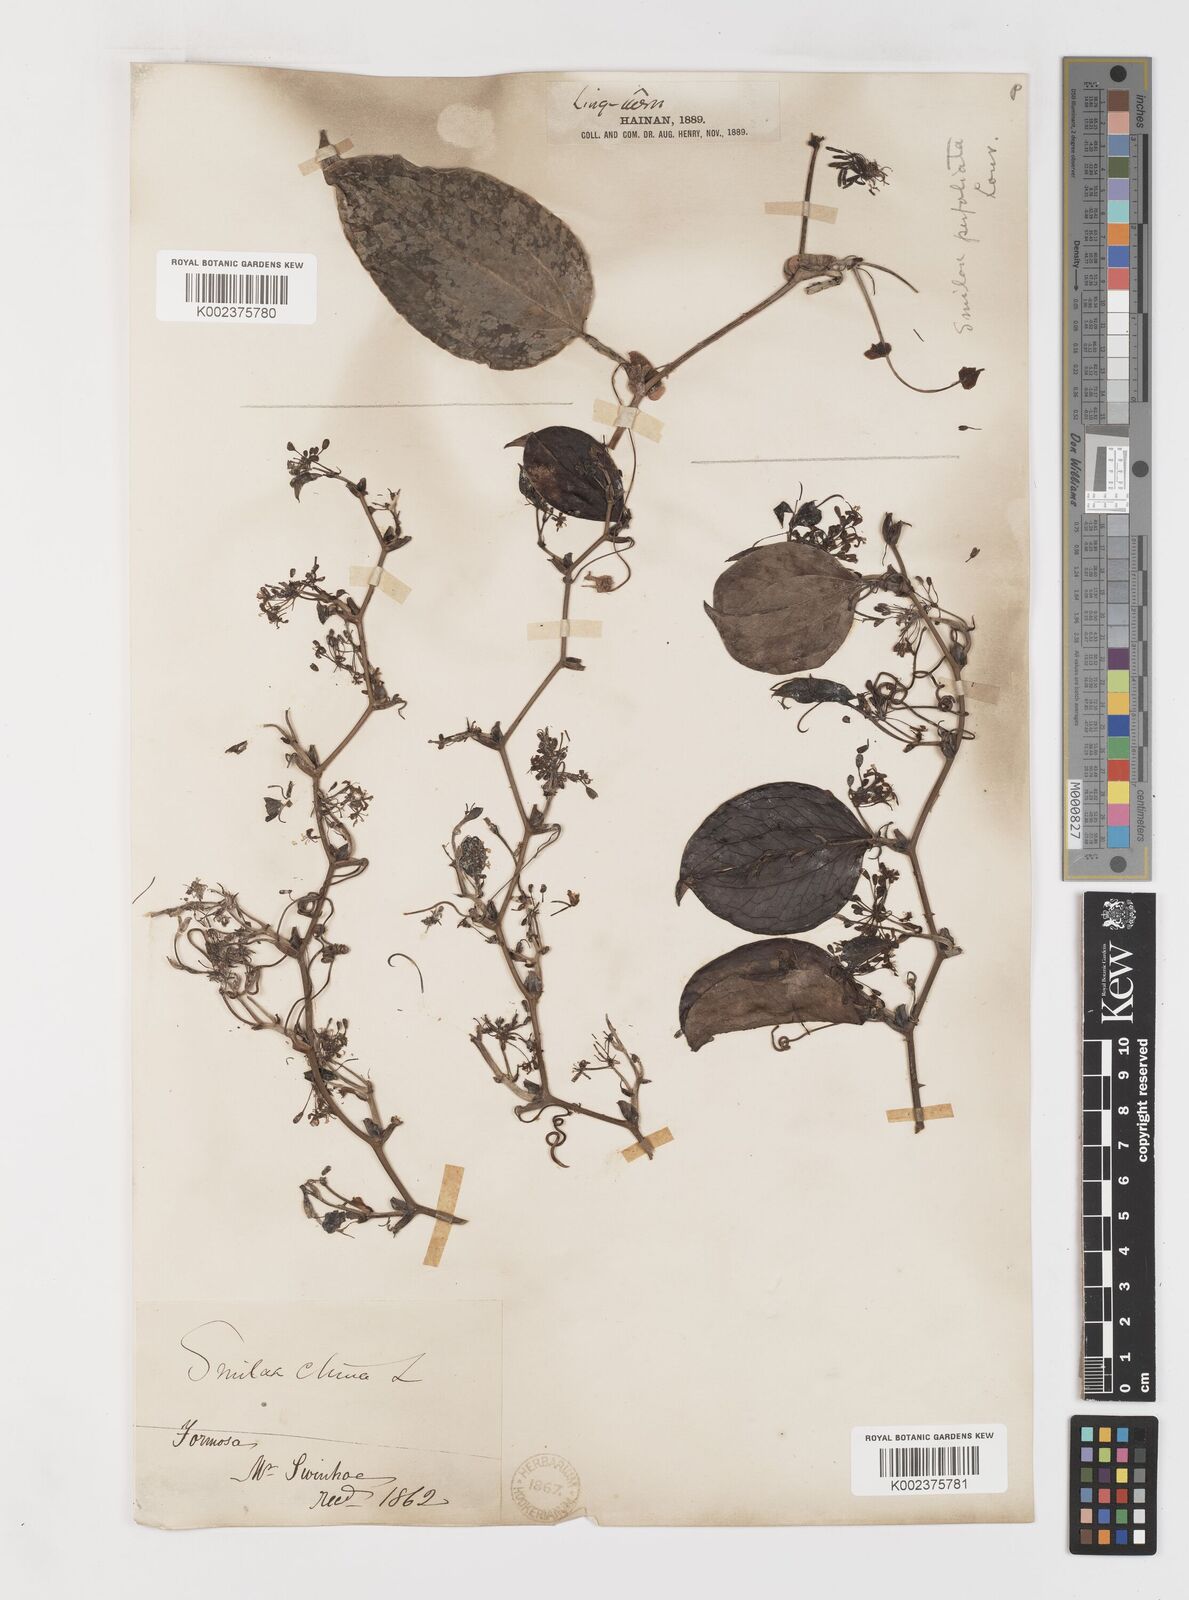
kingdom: Plantae
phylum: Tracheophyta
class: Liliopsida
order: Liliales
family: Smilacaceae
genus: Smilax
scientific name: Smilax china
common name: Chinaroot
